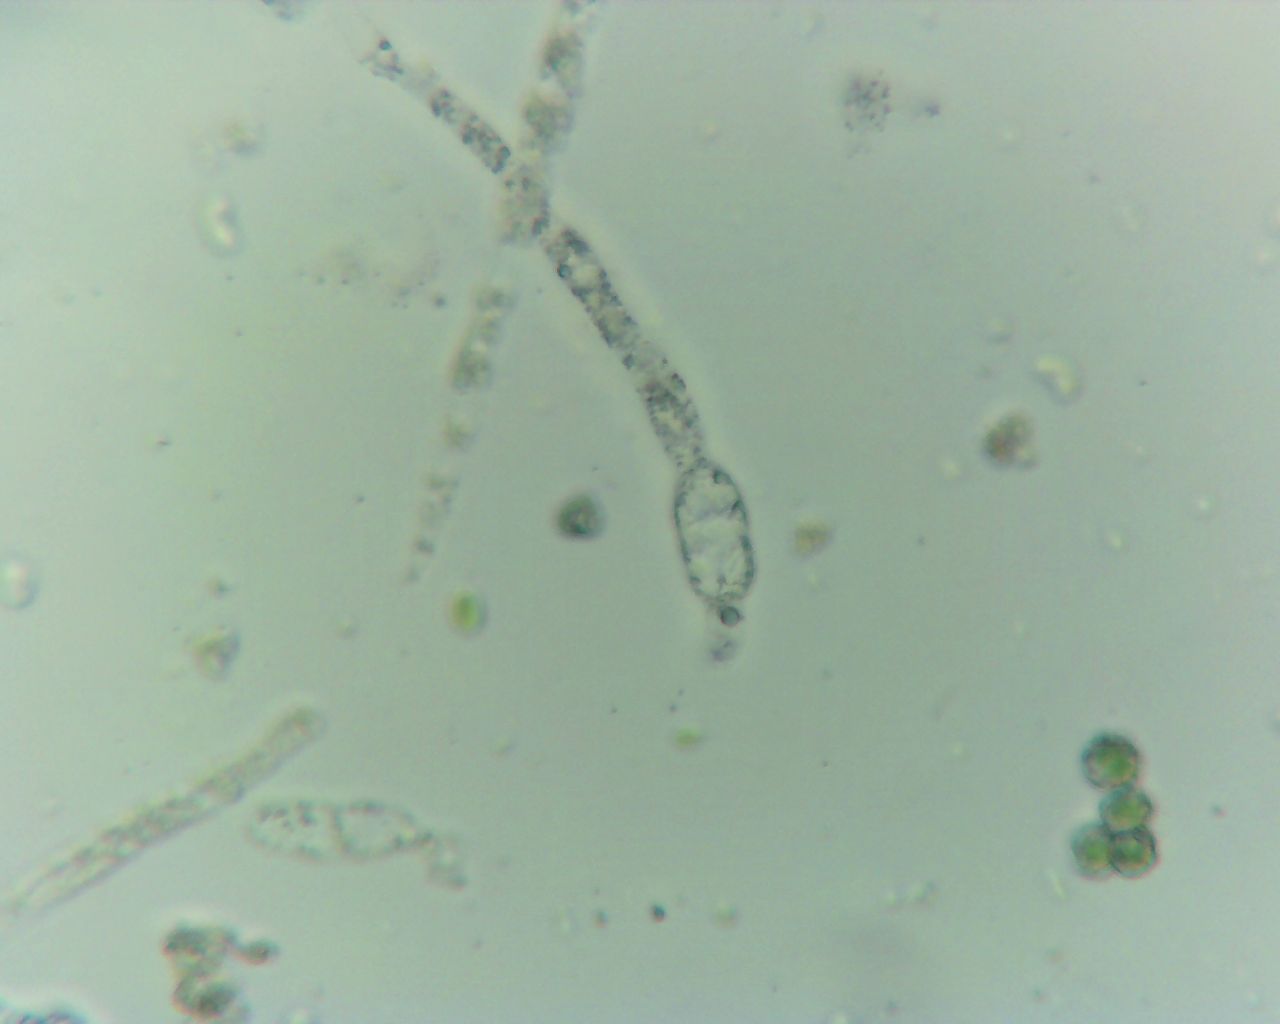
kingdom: Fungi
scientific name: Fungi
